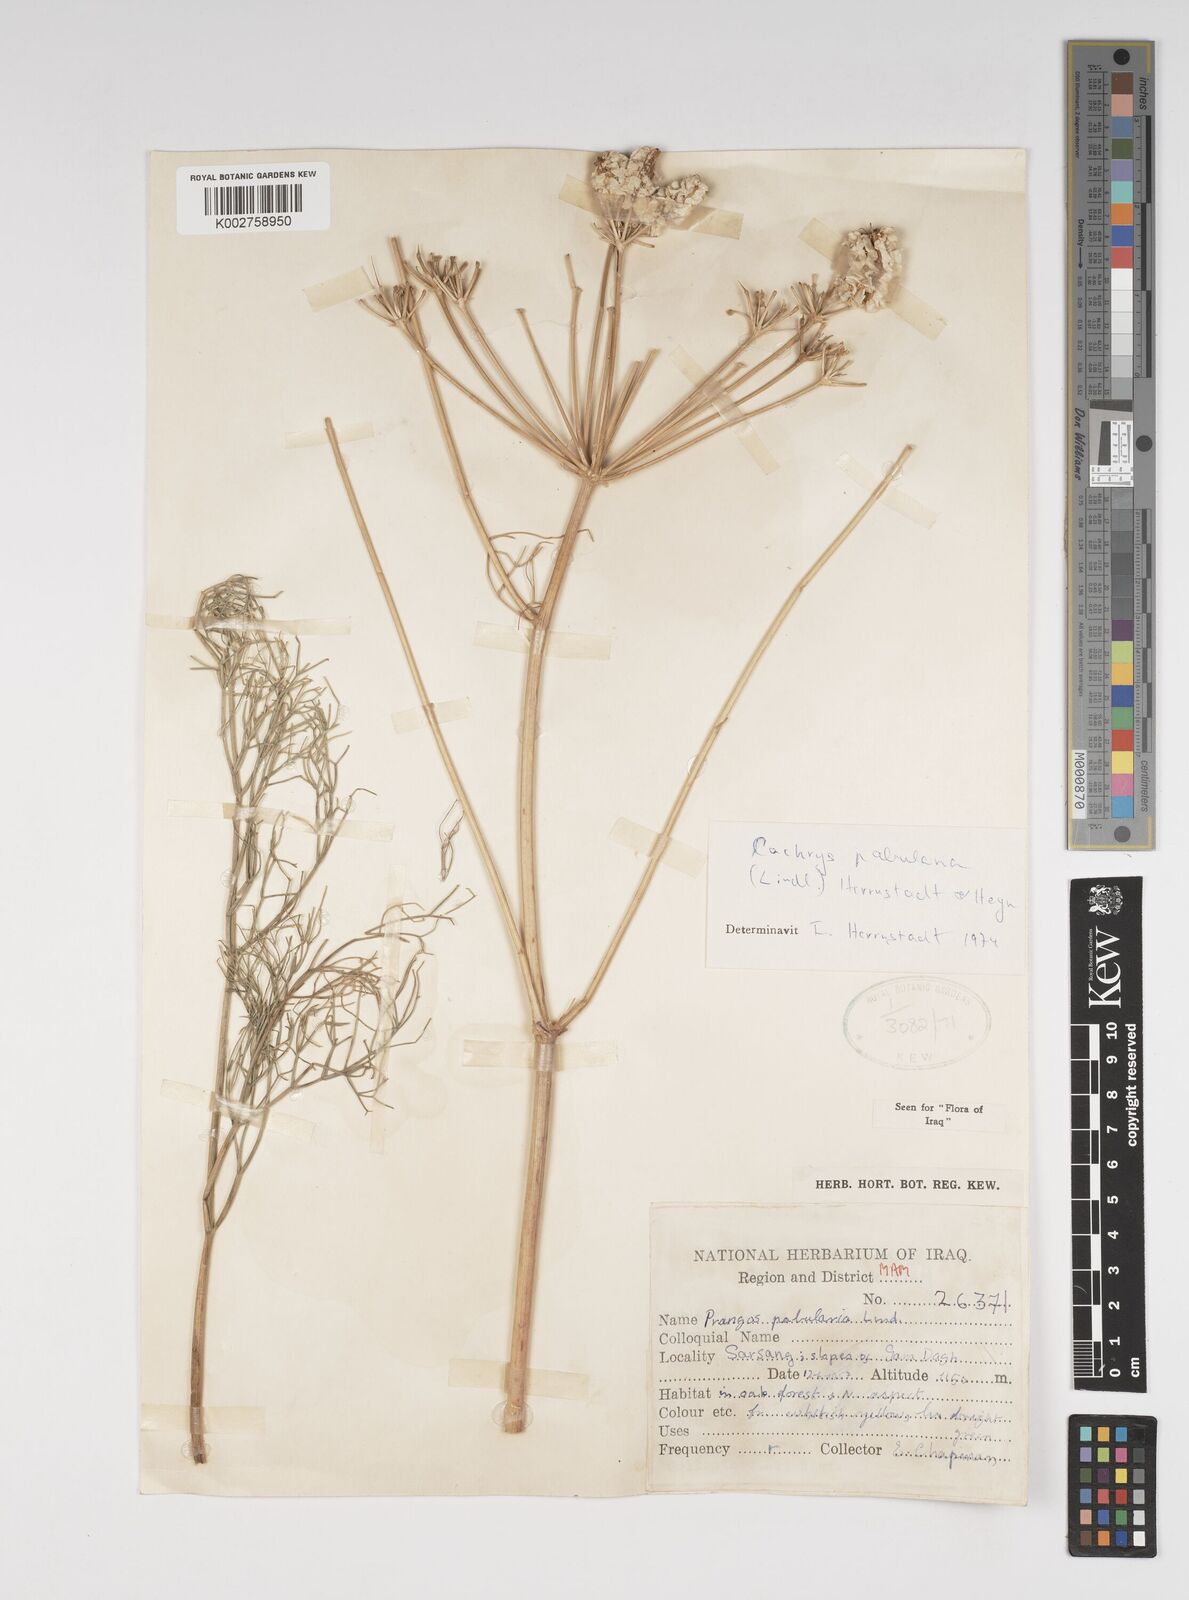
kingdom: Plantae
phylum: Tracheophyta
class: Magnoliopsida
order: Apiales
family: Apiaceae
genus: Prangos
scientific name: Prangos pabularia
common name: Yugan
